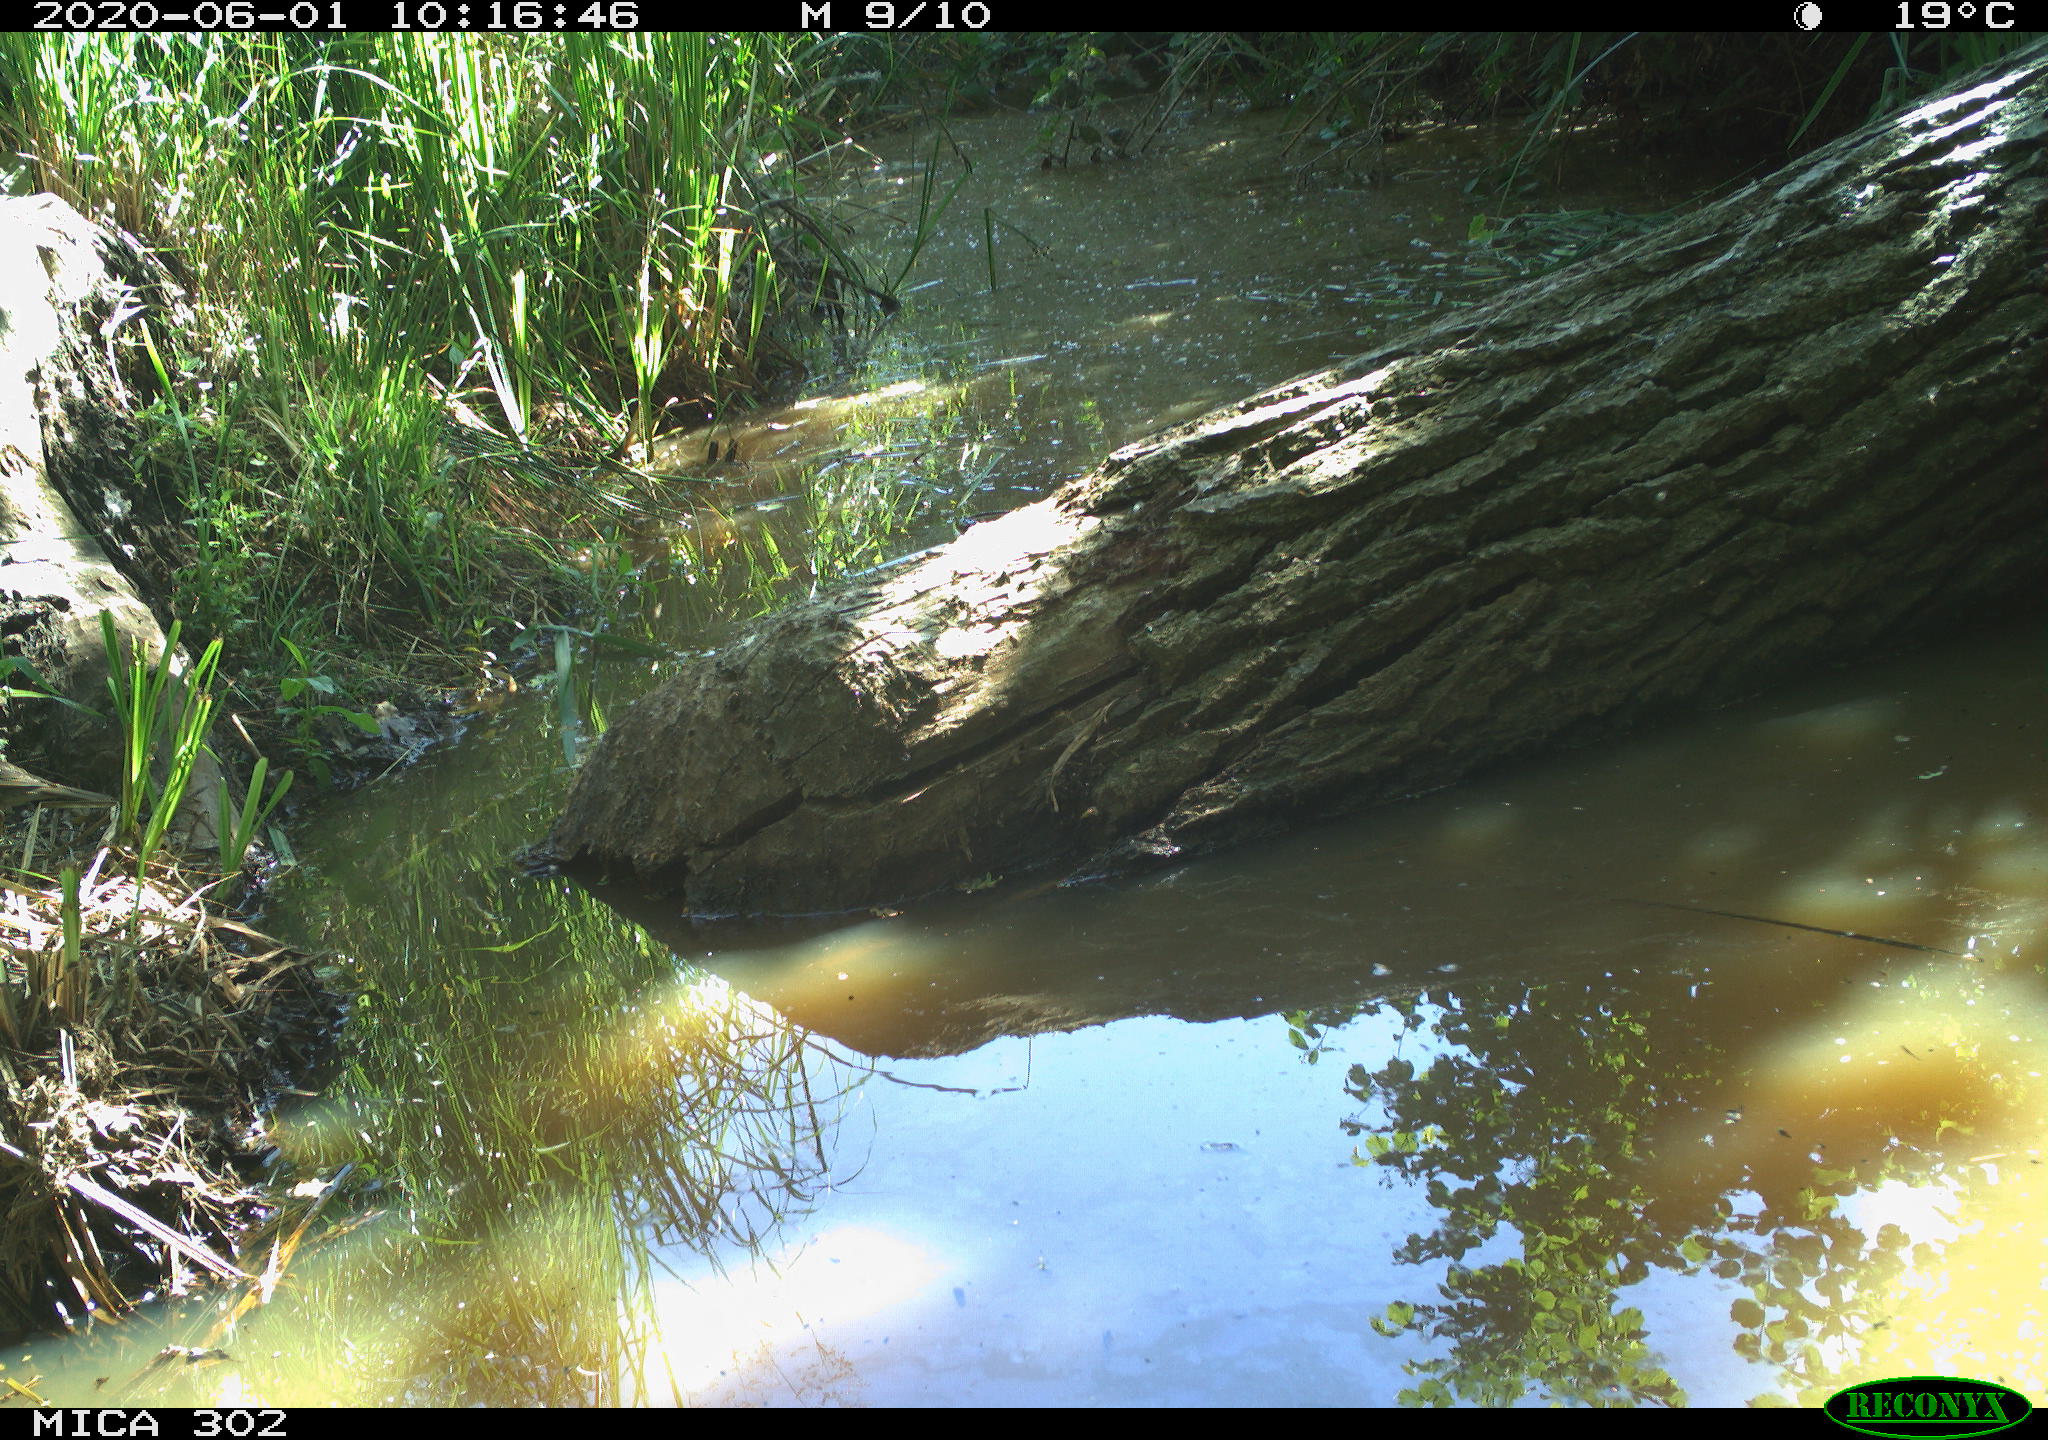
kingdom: Animalia
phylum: Chordata
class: Aves
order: Passeriformes
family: Turdidae
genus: Turdus
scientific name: Turdus philomelos
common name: Song thrush
